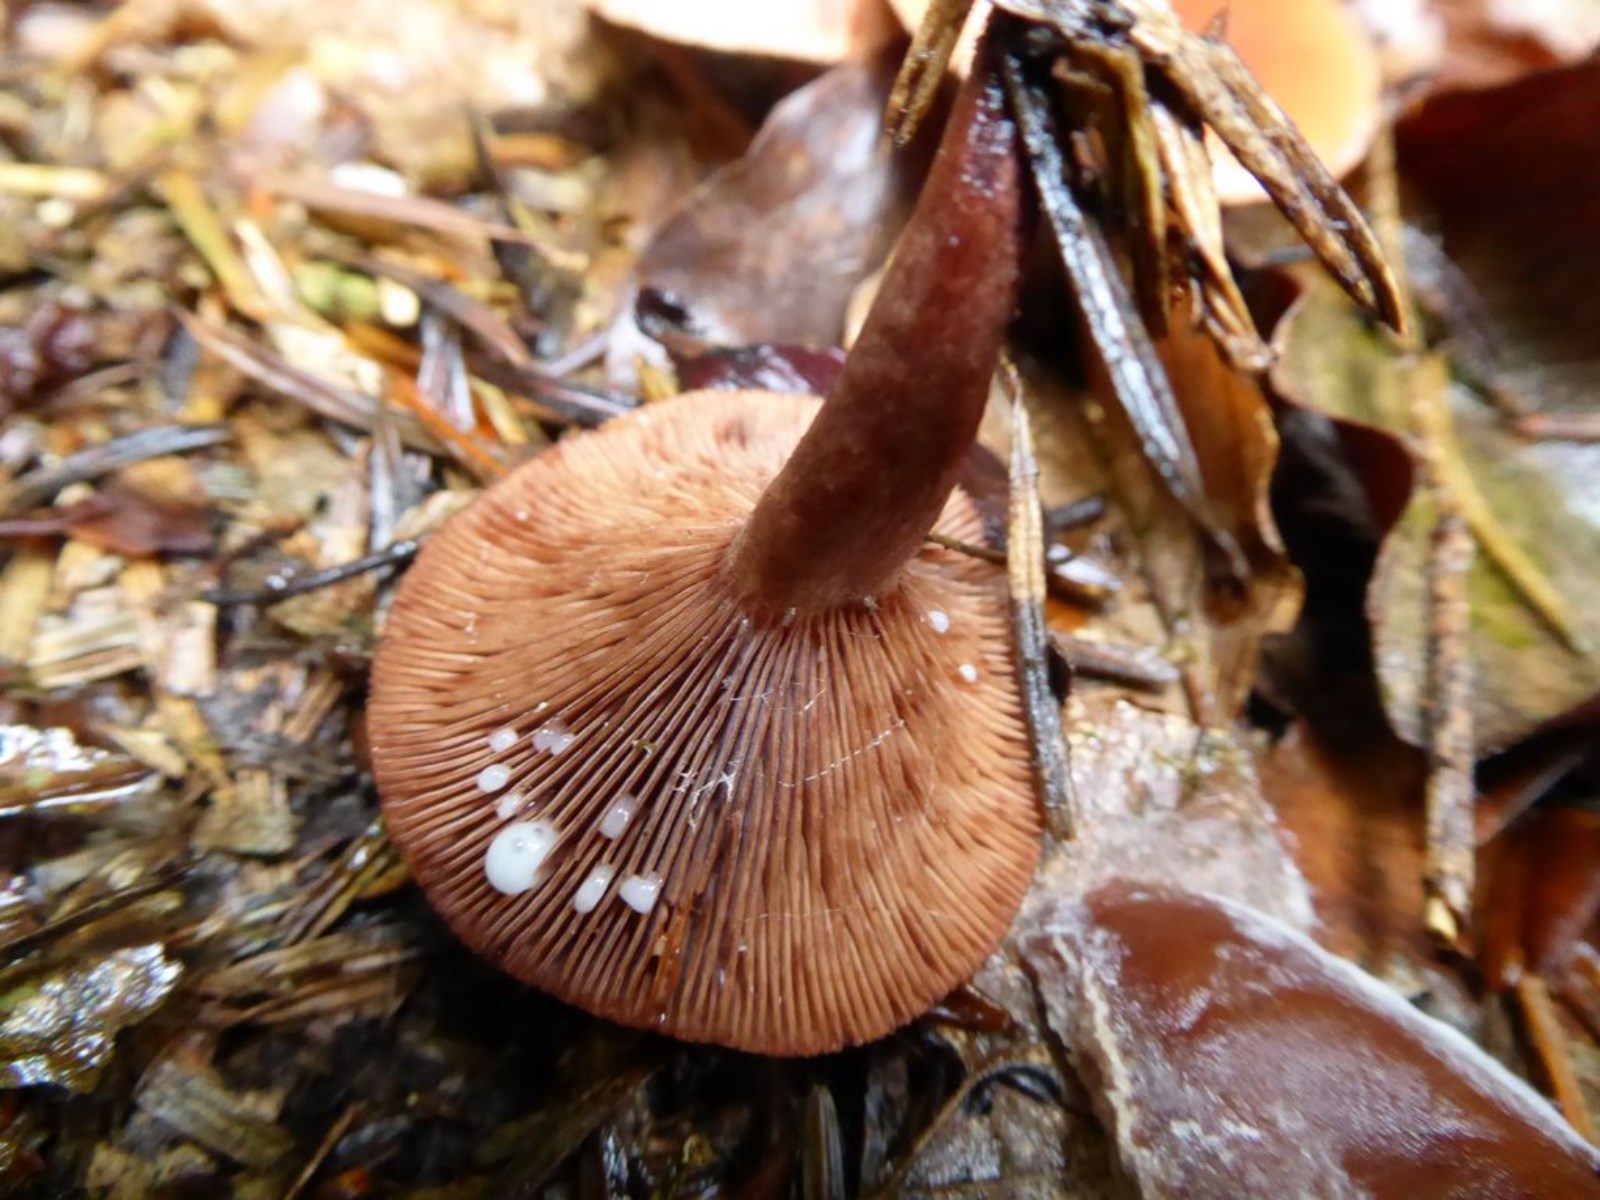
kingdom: Fungi
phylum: Basidiomycota
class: Agaricomycetes
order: Russulales
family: Russulaceae
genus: Lactarius
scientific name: Lactarius camphoratus
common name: kamfer-mælkehat
